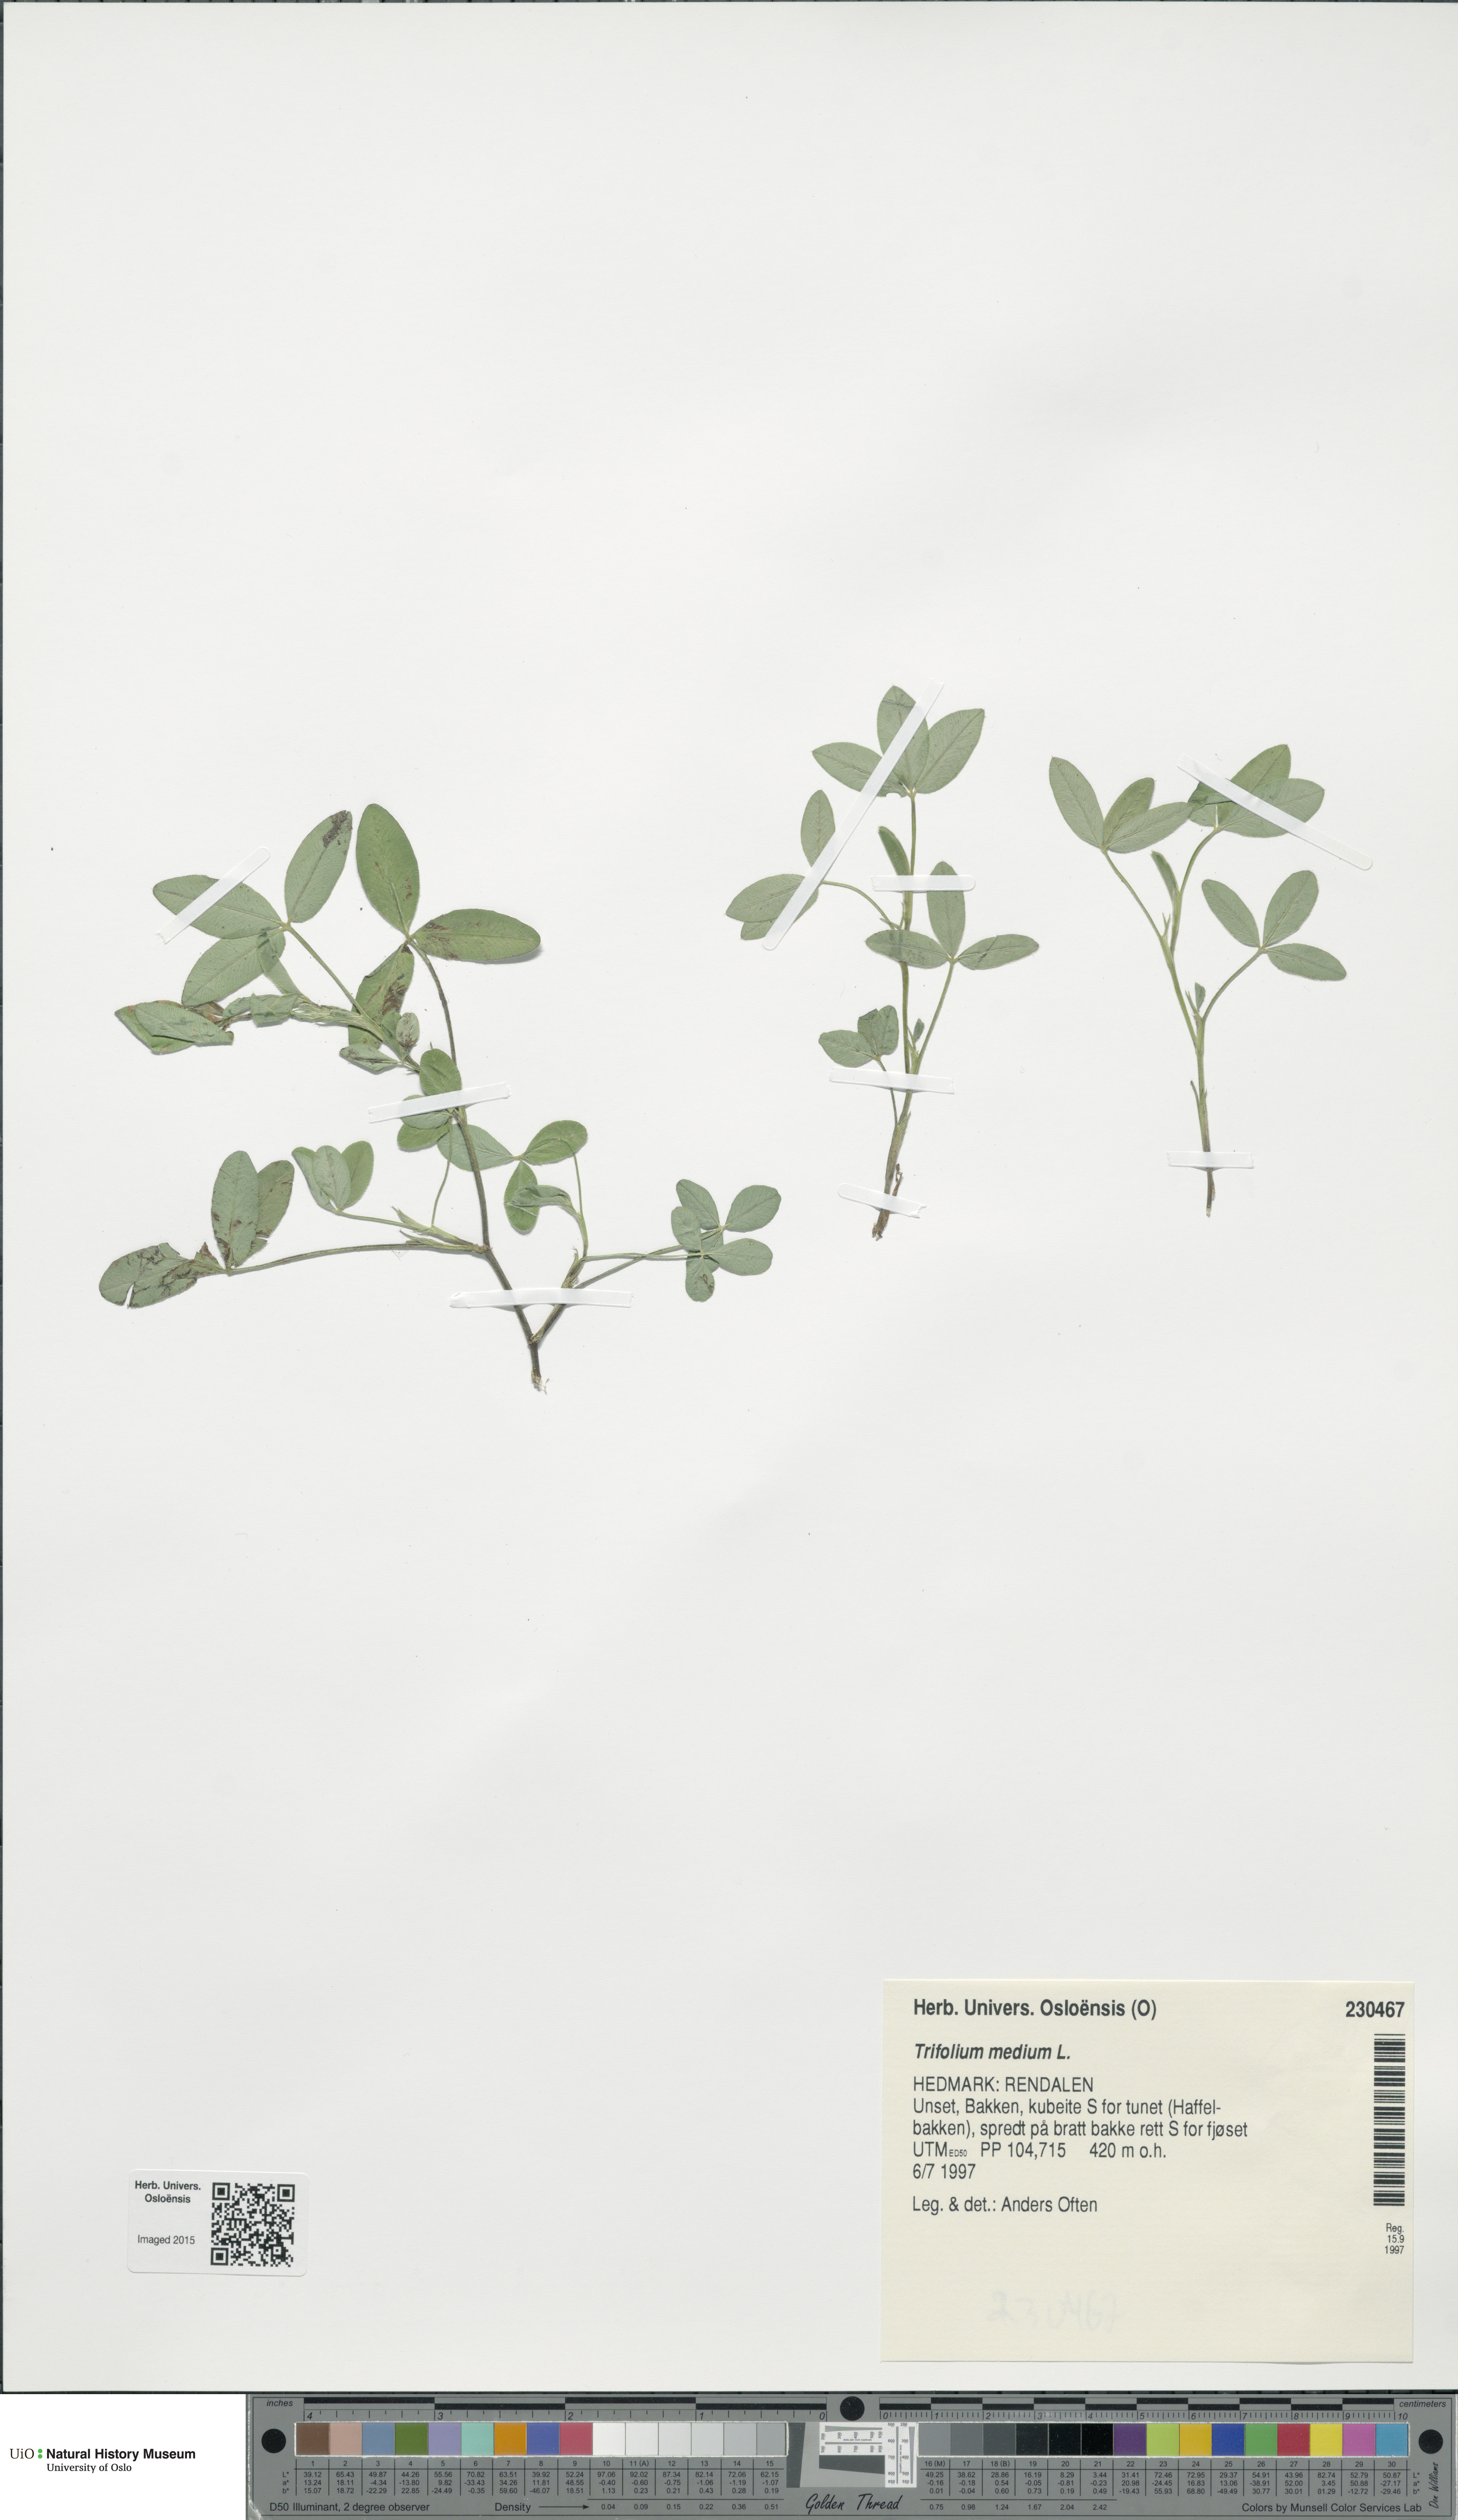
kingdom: Plantae
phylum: Tracheophyta
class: Magnoliopsida
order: Fabales
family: Fabaceae
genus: Trifolium
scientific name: Trifolium medium
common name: Zigzag clover
